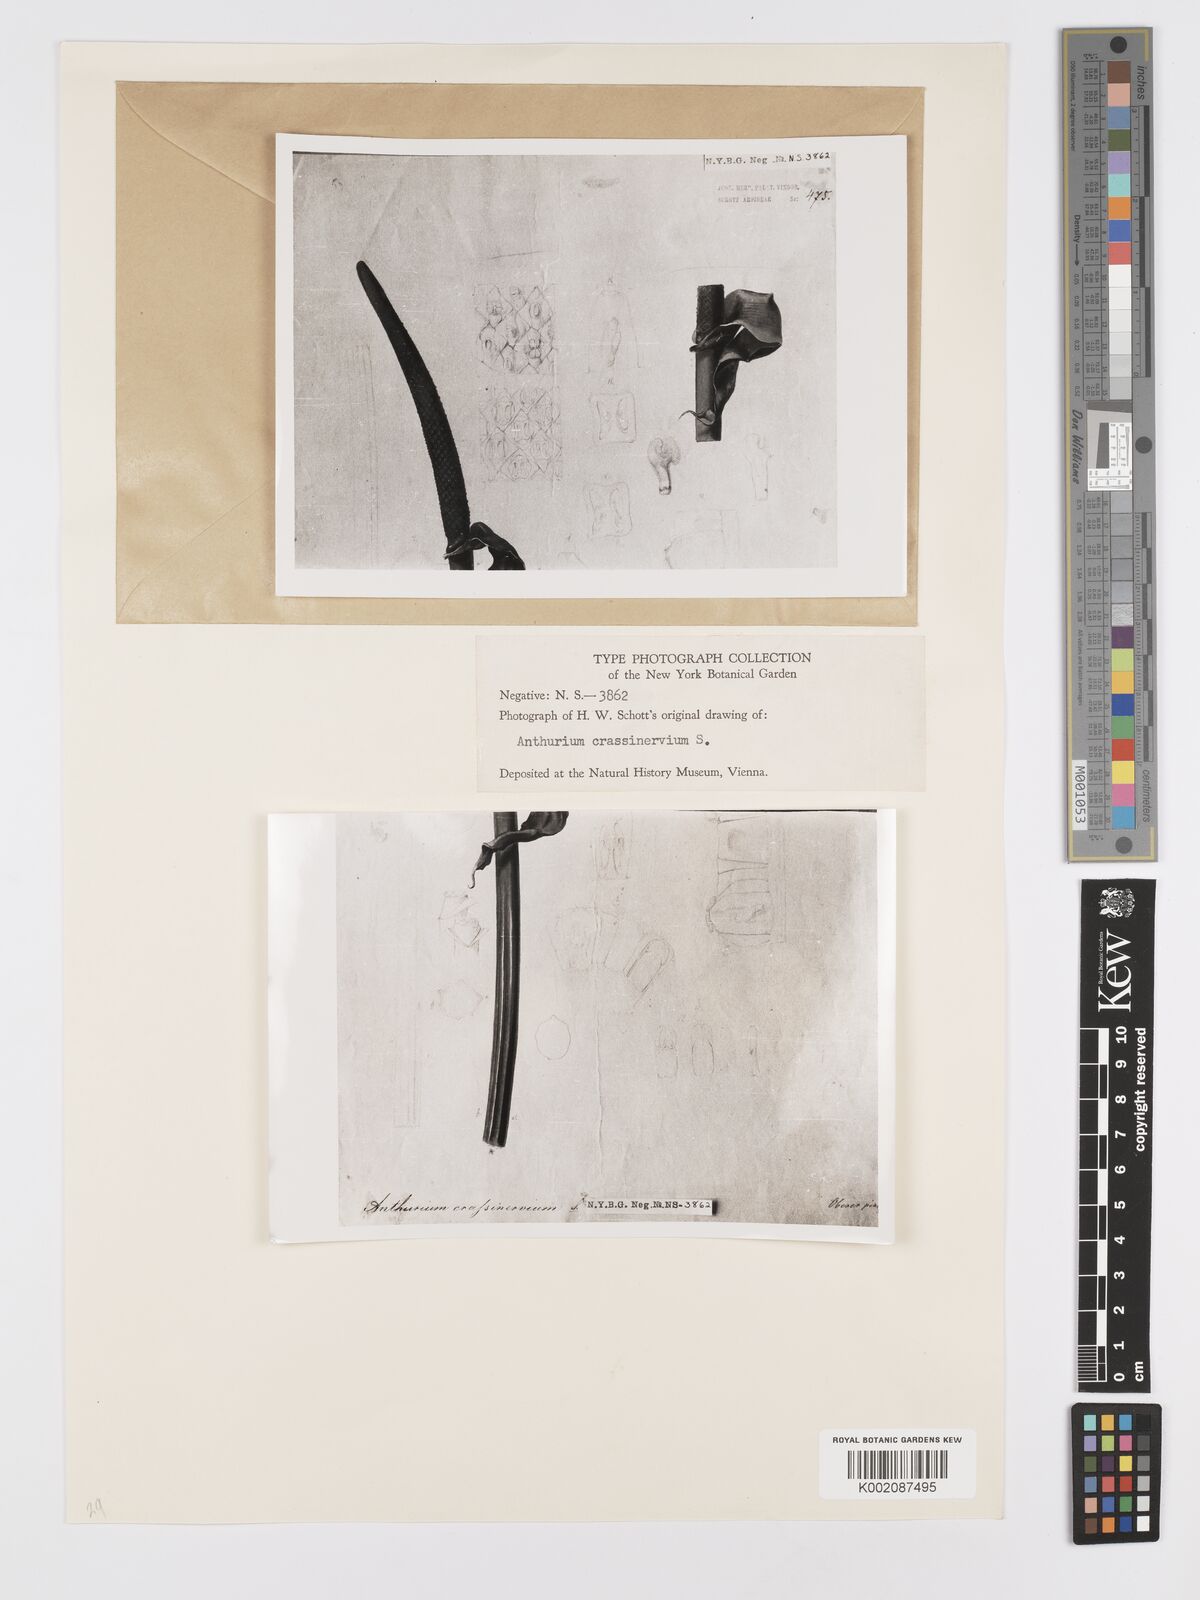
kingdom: Plantae
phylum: Tracheophyta
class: Liliopsida
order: Alismatales
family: Araceae
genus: Anthurium
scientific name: Anthurium crassinervium
